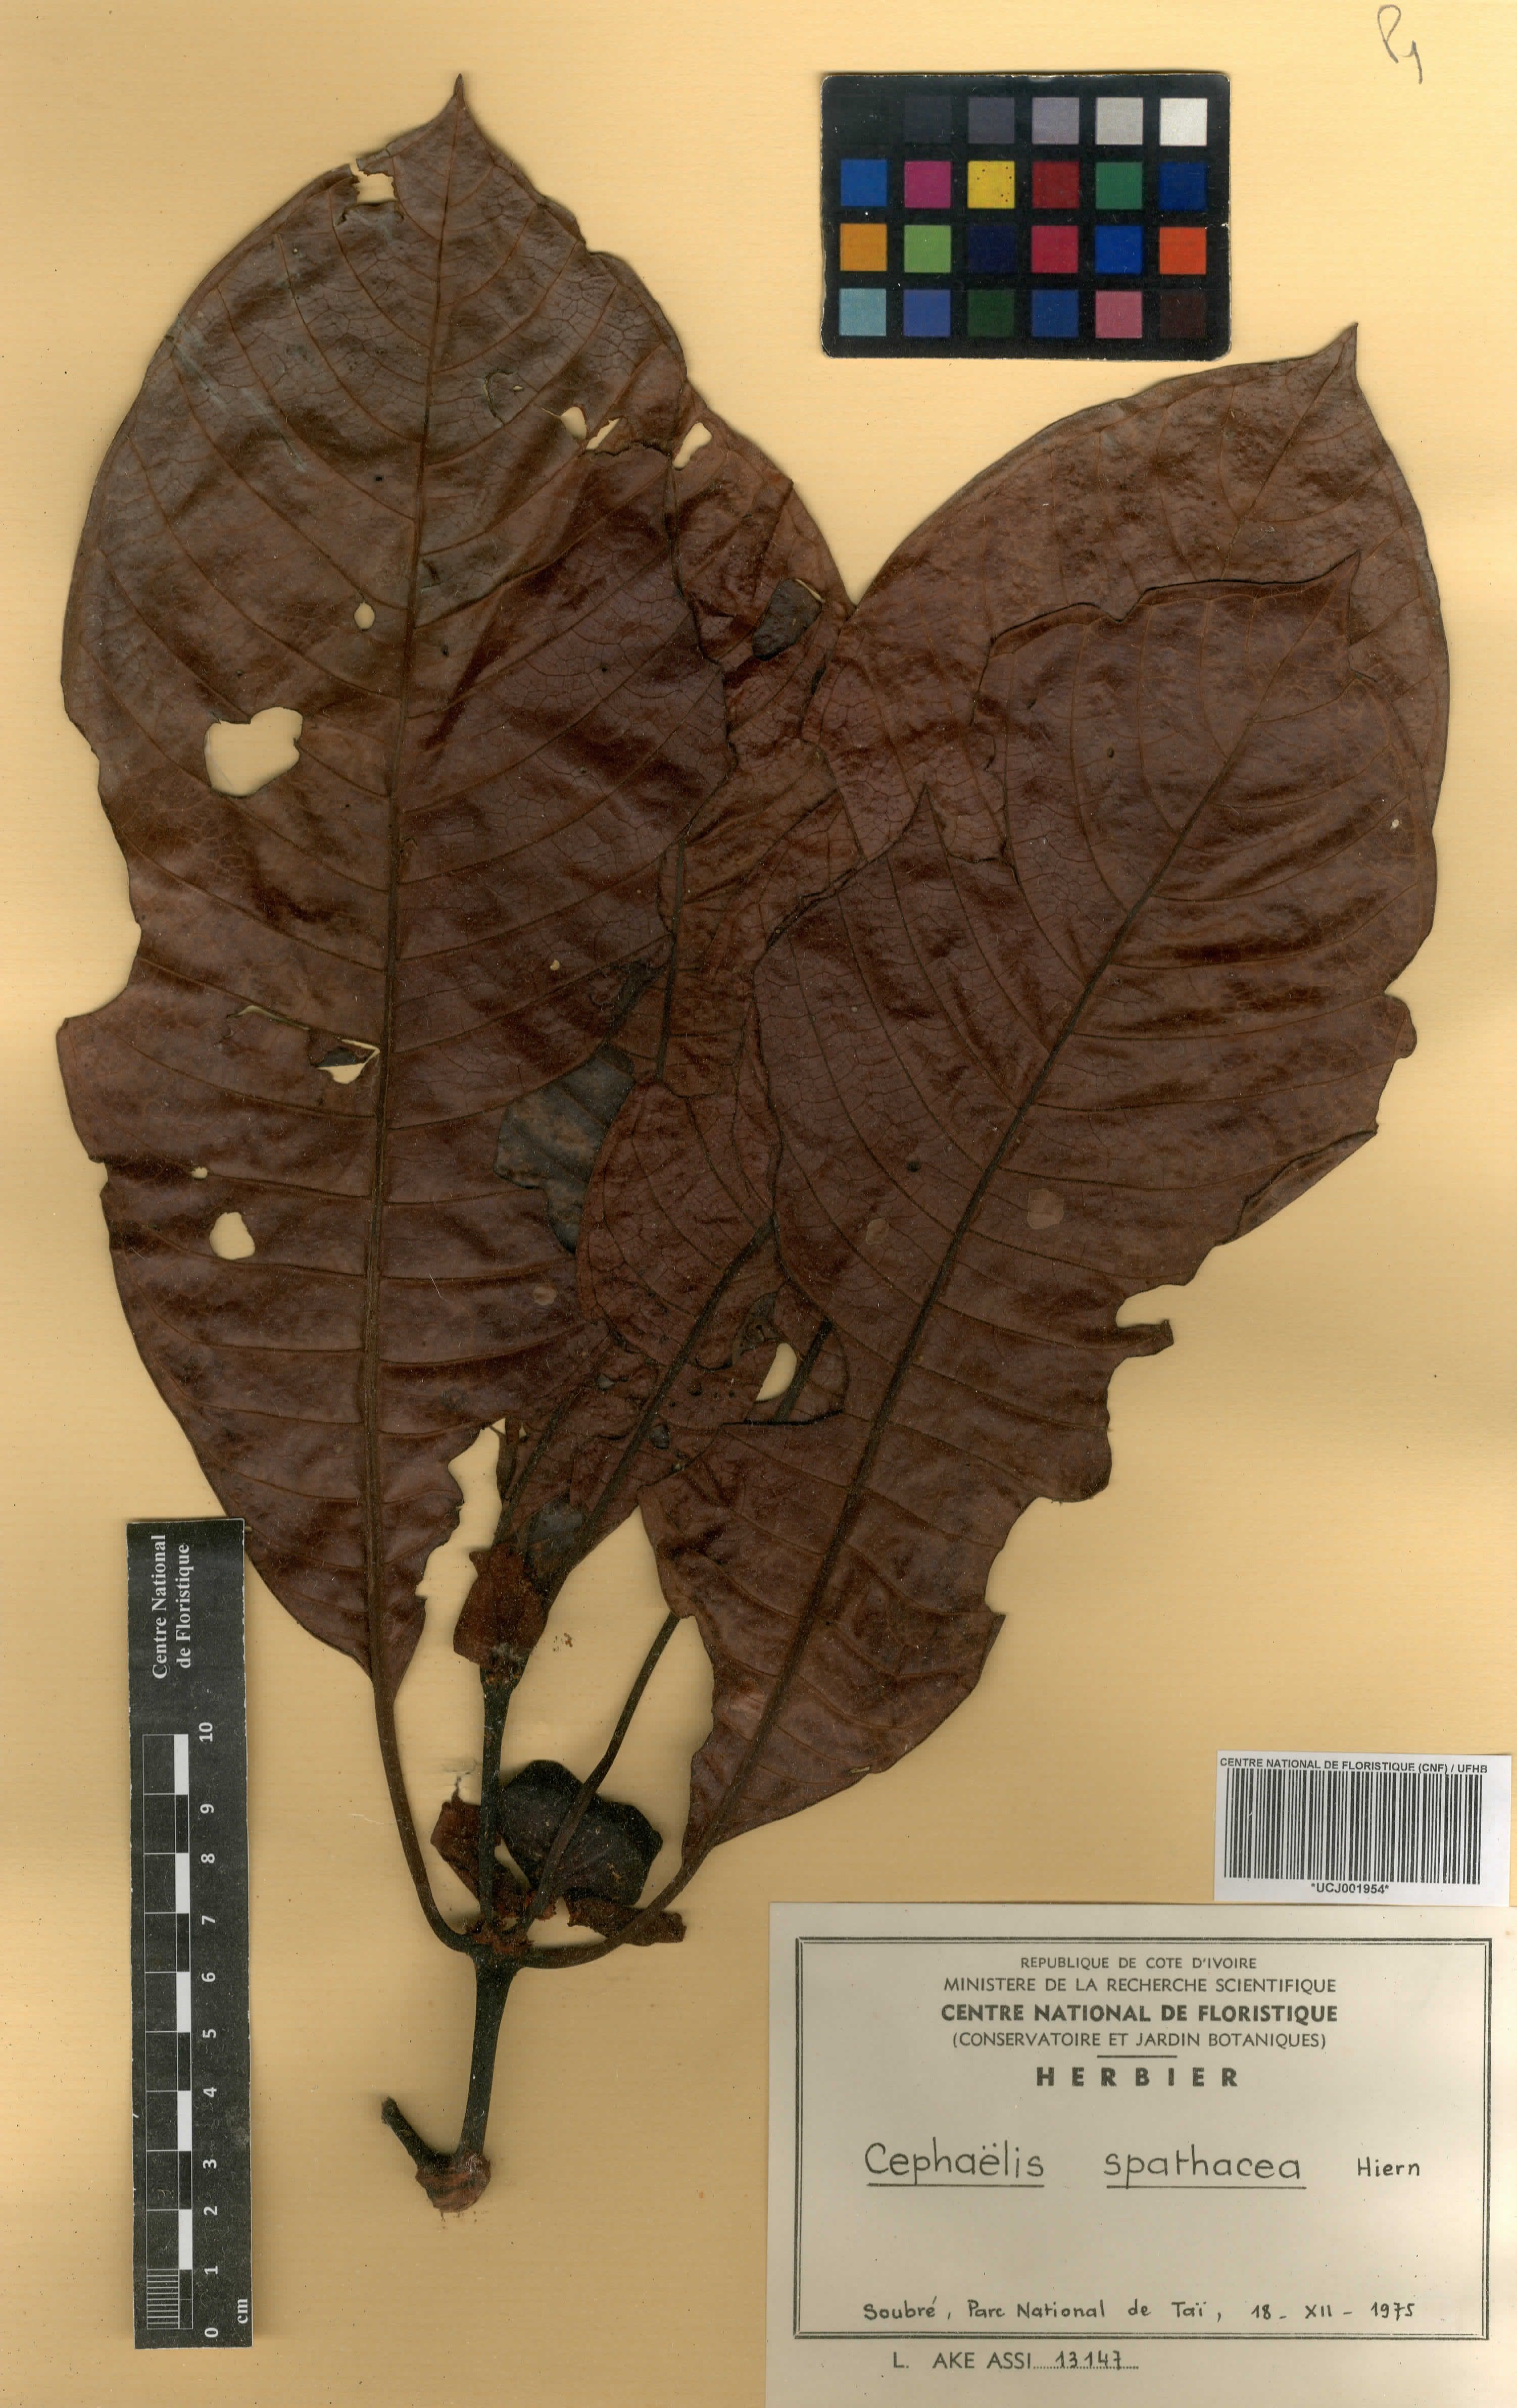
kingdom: Plantae
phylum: Tracheophyta
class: Magnoliopsida
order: Gentianales
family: Rubiaceae
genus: Psychotria
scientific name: Psychotria spathacea
